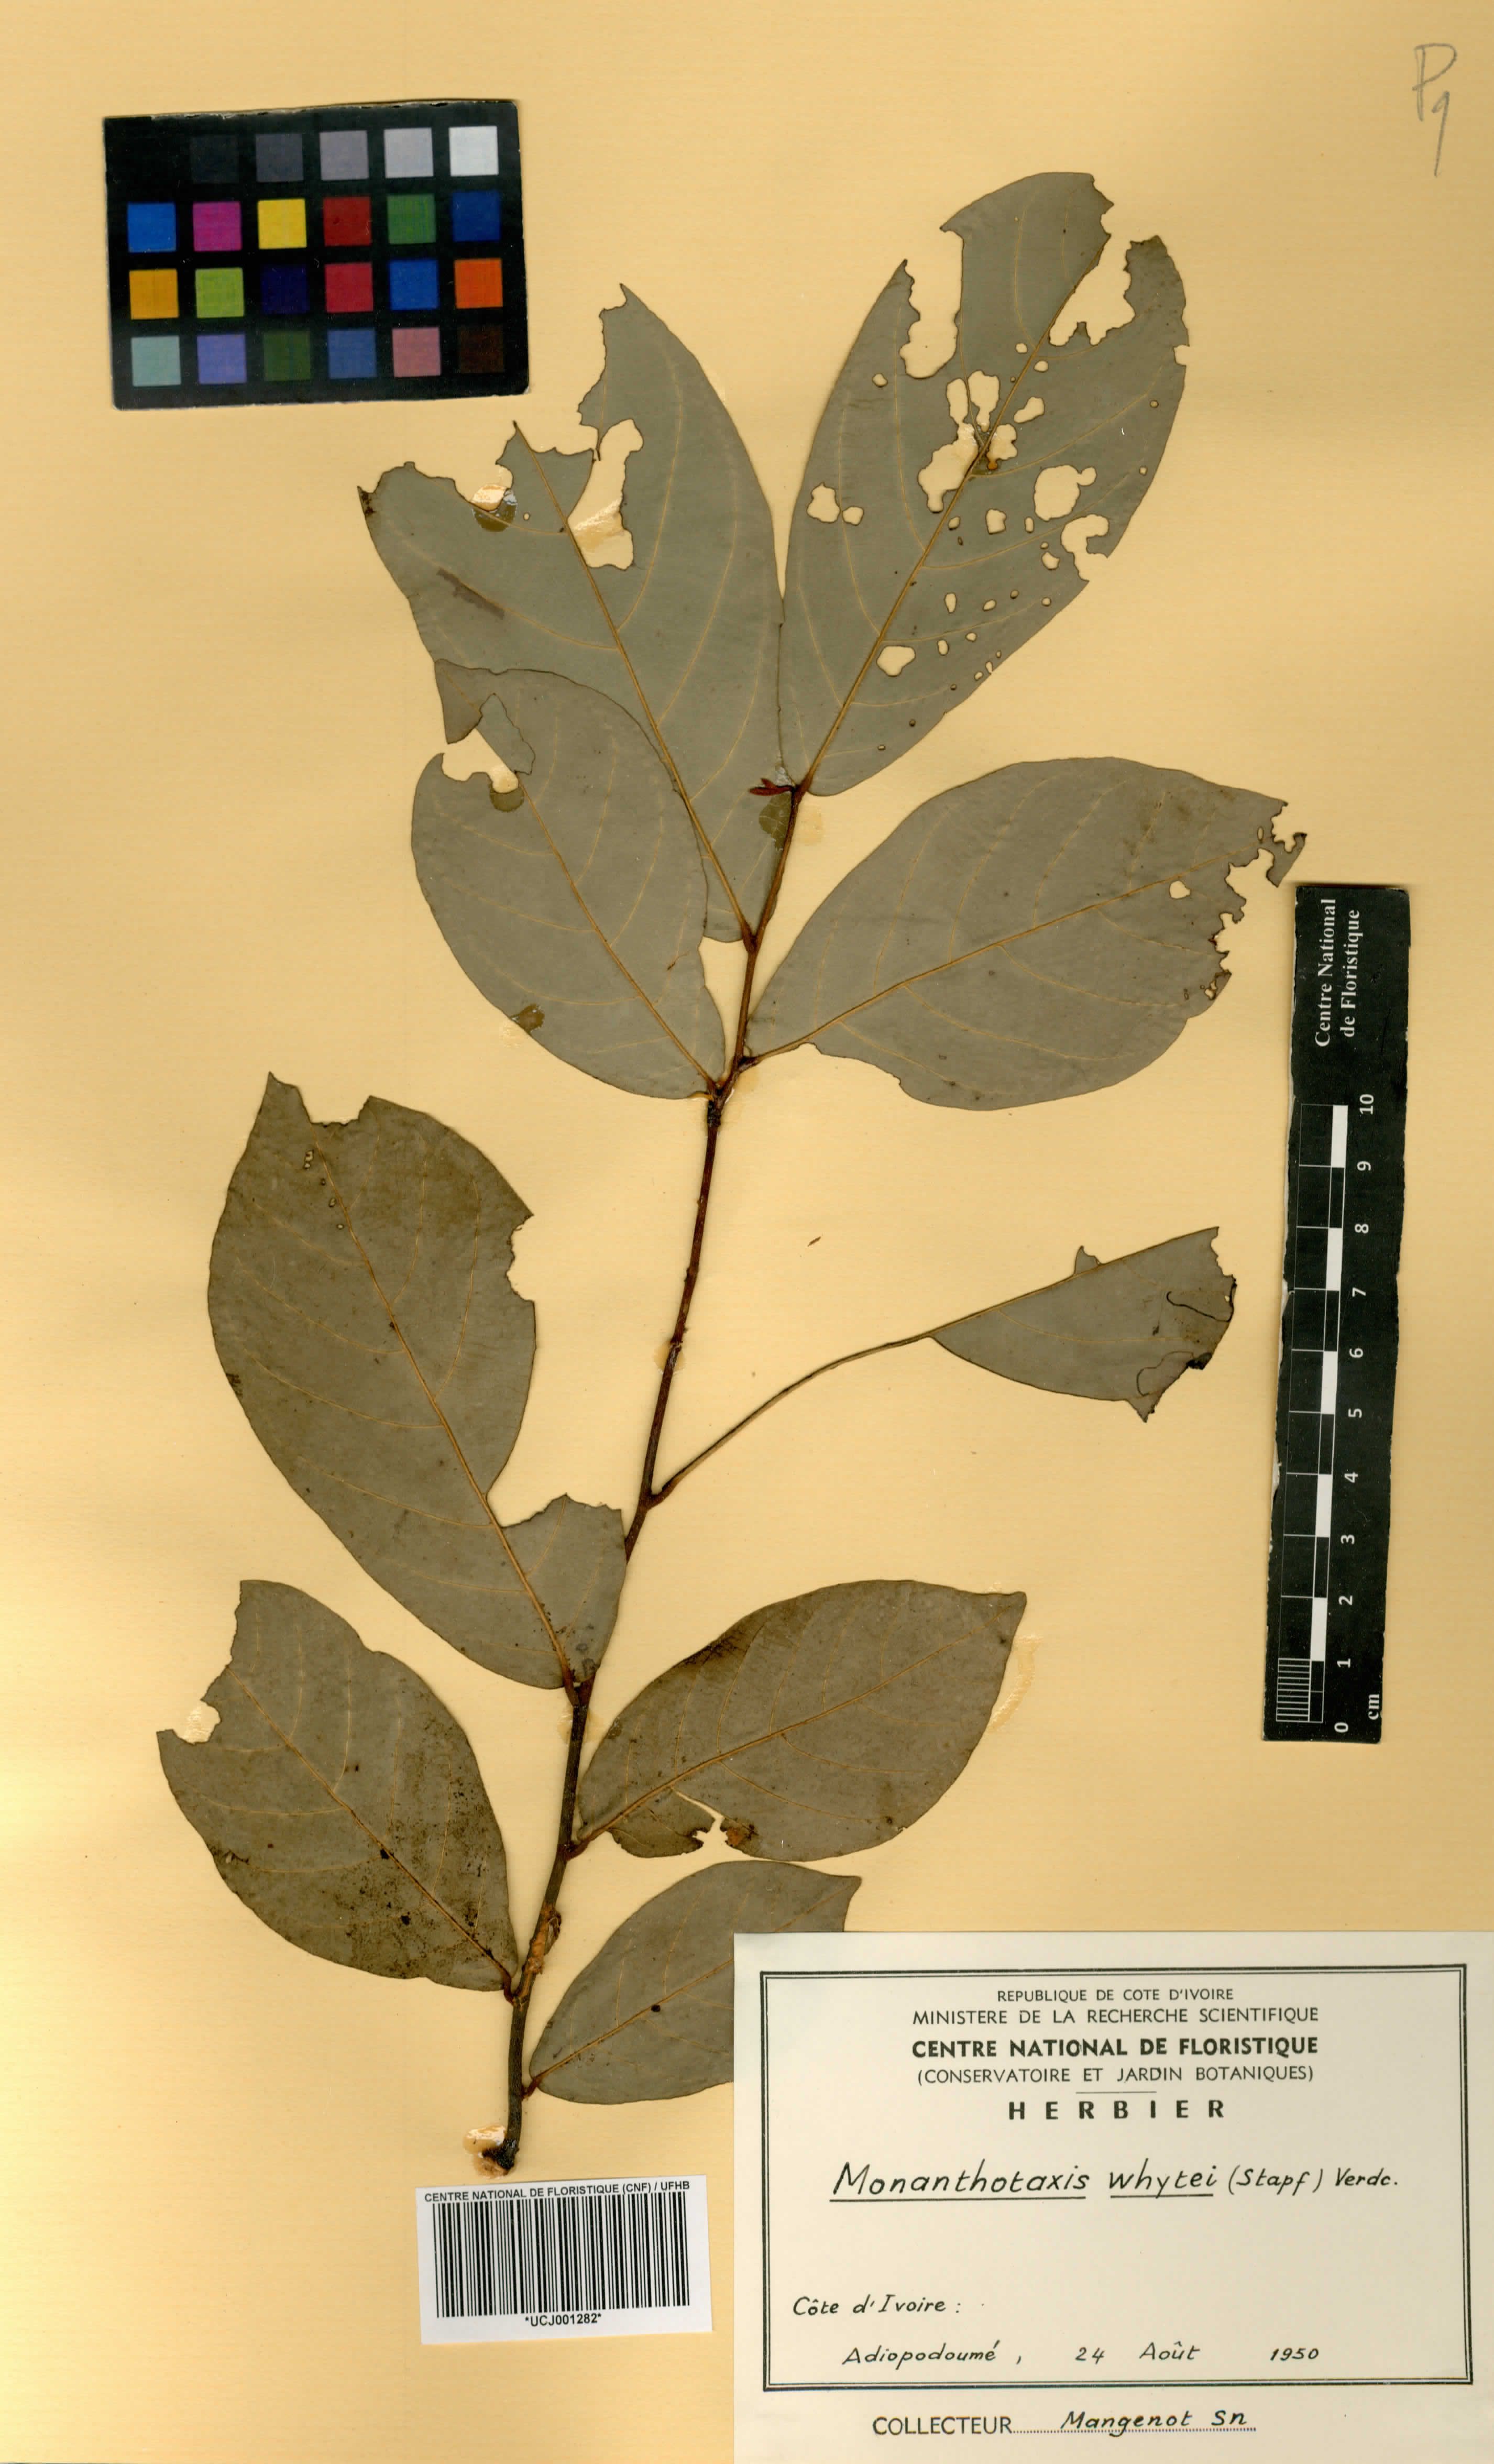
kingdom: Plantae
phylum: Tracheophyta
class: Magnoliopsida
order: Magnoliales
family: Annonaceae
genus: Monanthotaxis
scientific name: Monanthotaxis whytei
